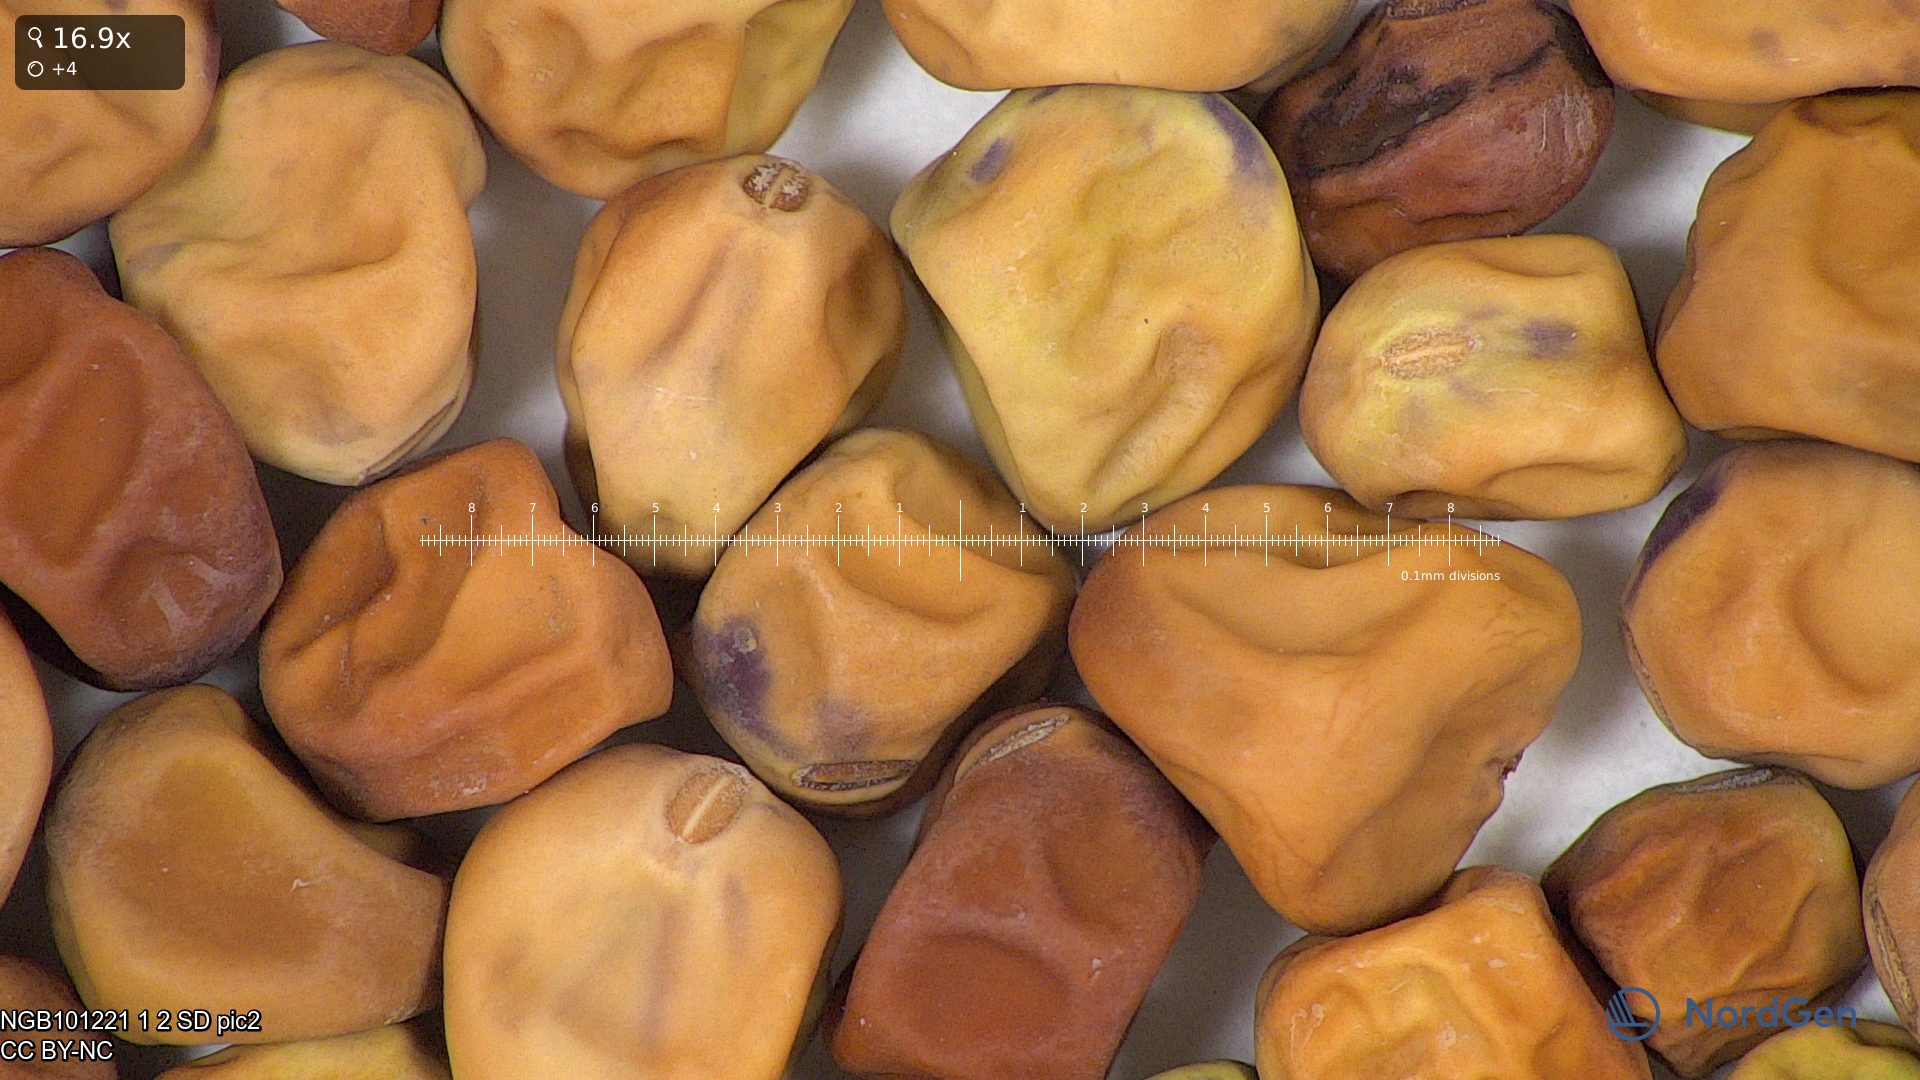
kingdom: Plantae
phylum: Tracheophyta
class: Magnoliopsida
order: Fabales
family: Fabaceae
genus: Lathyrus
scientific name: Lathyrus oleraceus
